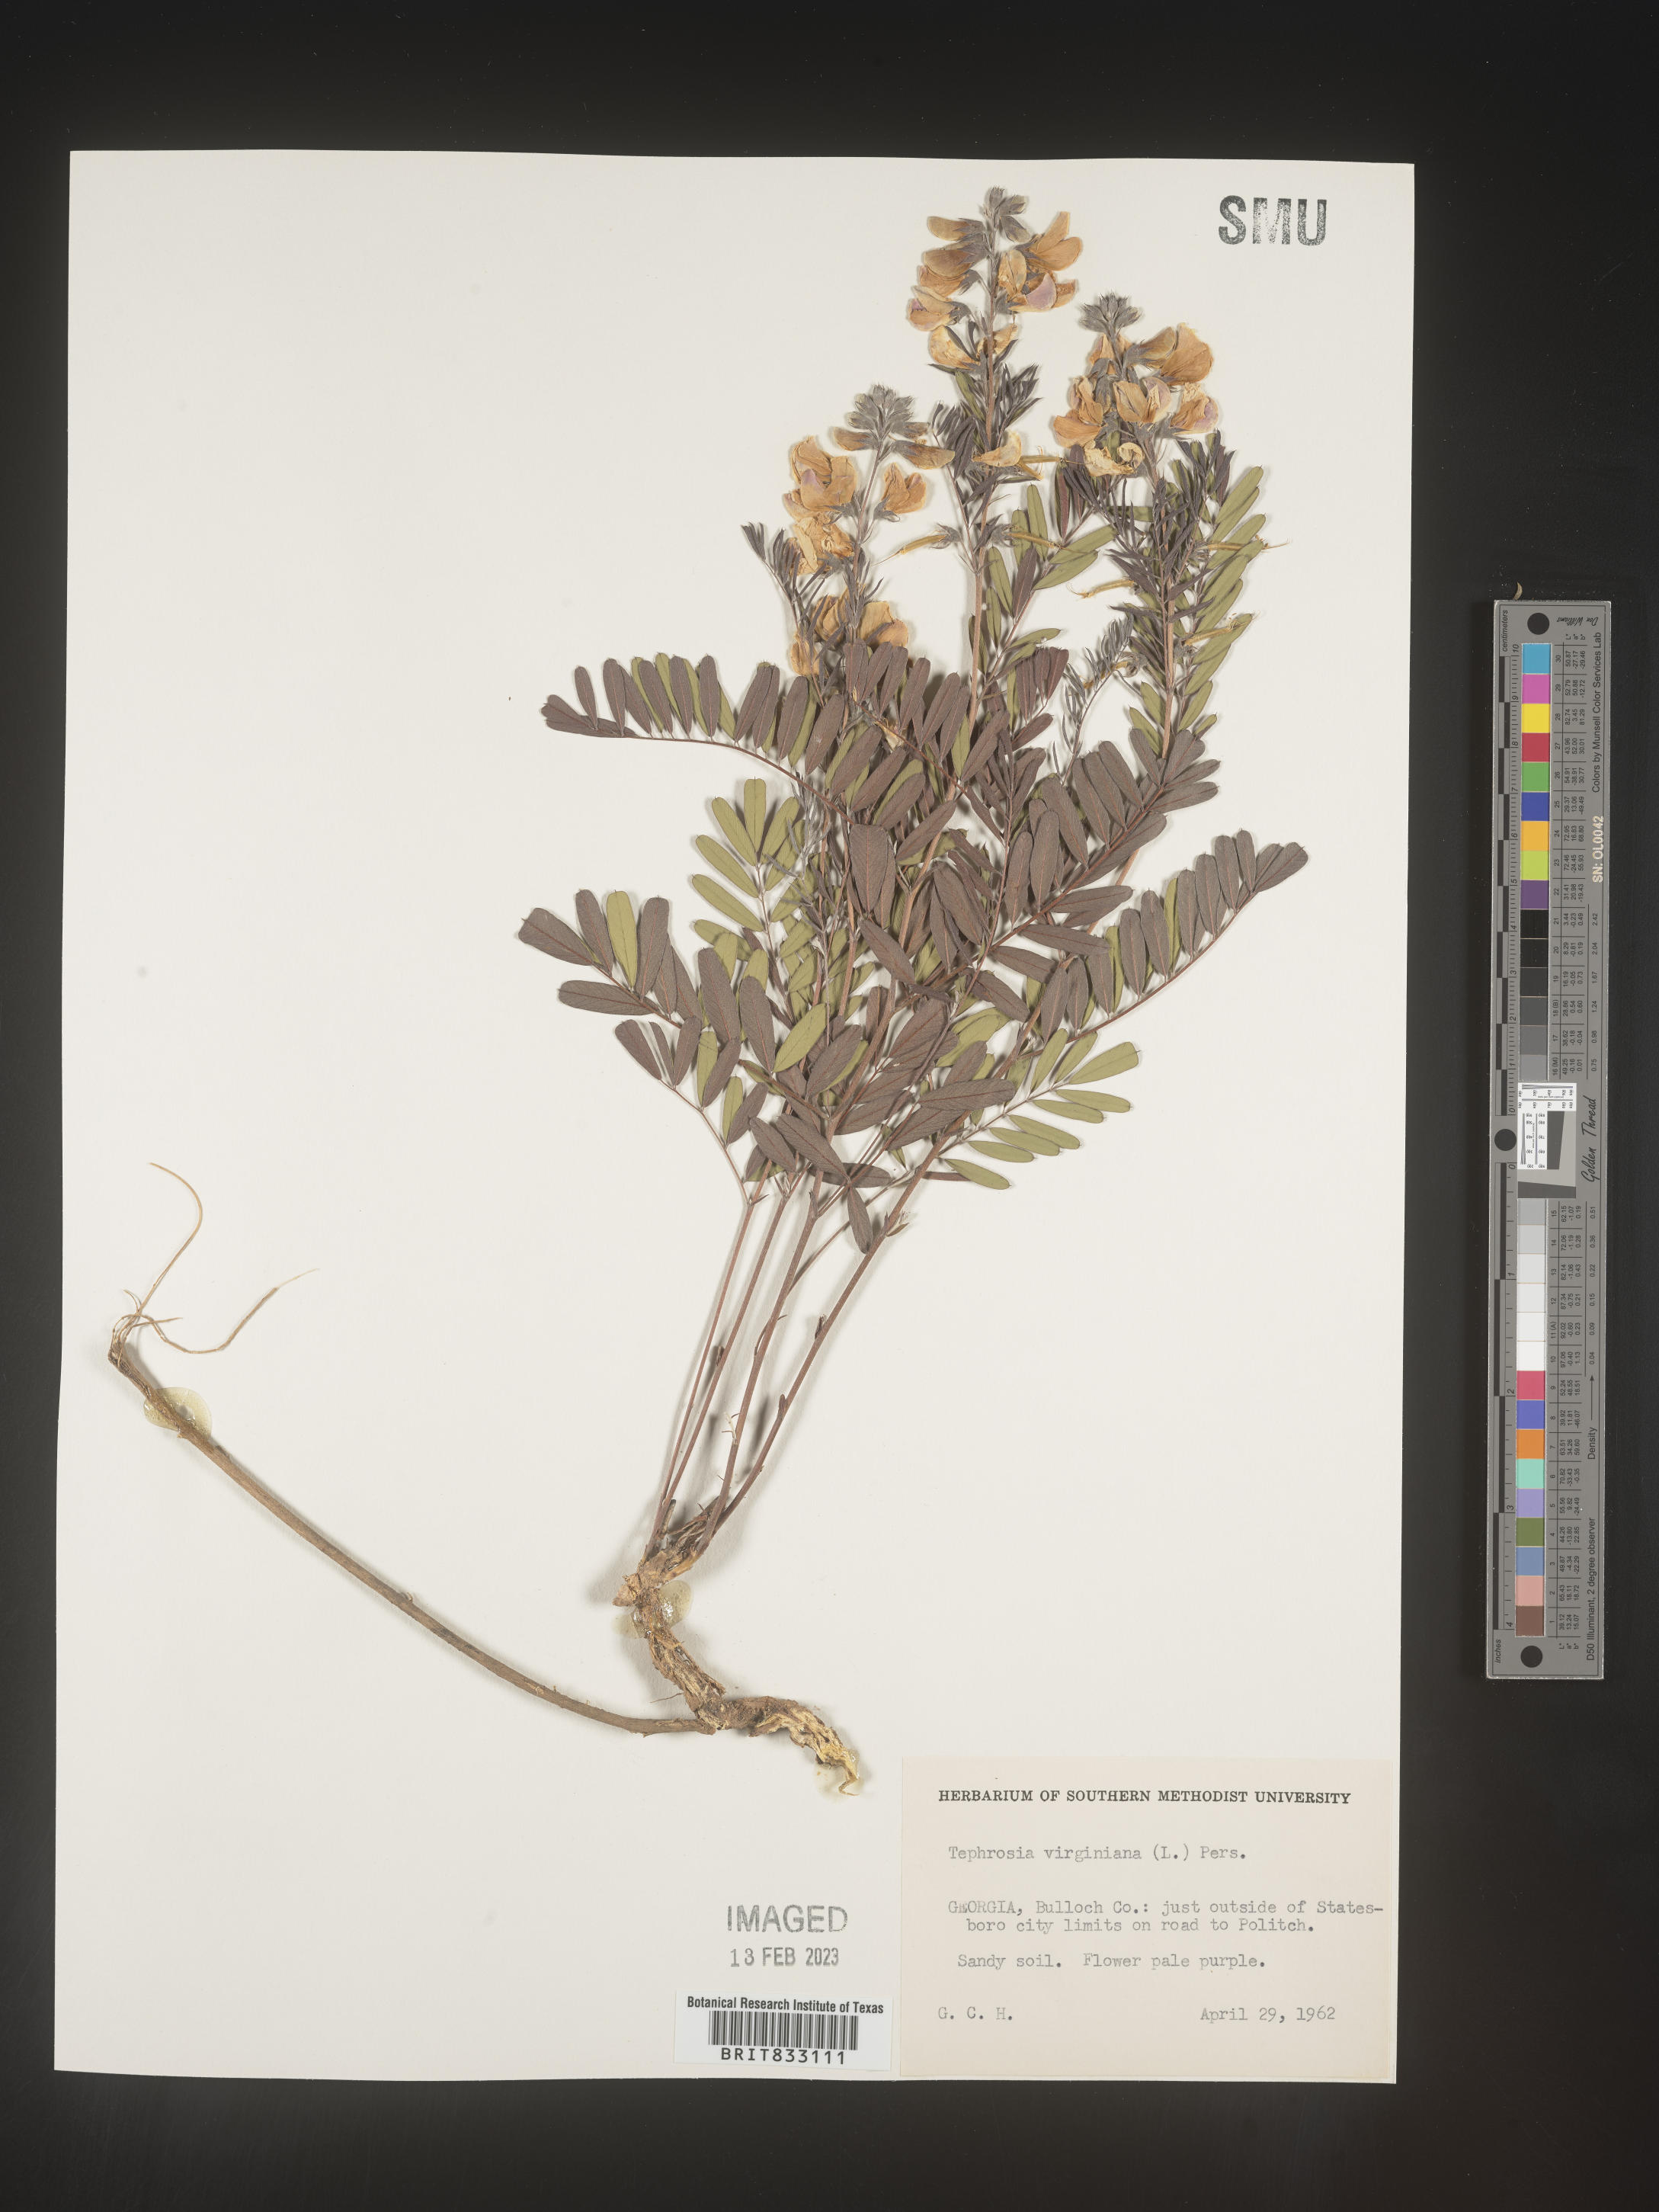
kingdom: Plantae
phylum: Tracheophyta
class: Magnoliopsida
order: Fabales
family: Fabaceae
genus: Tephrosia
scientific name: Tephrosia virginiana
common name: Rabbit-pea
